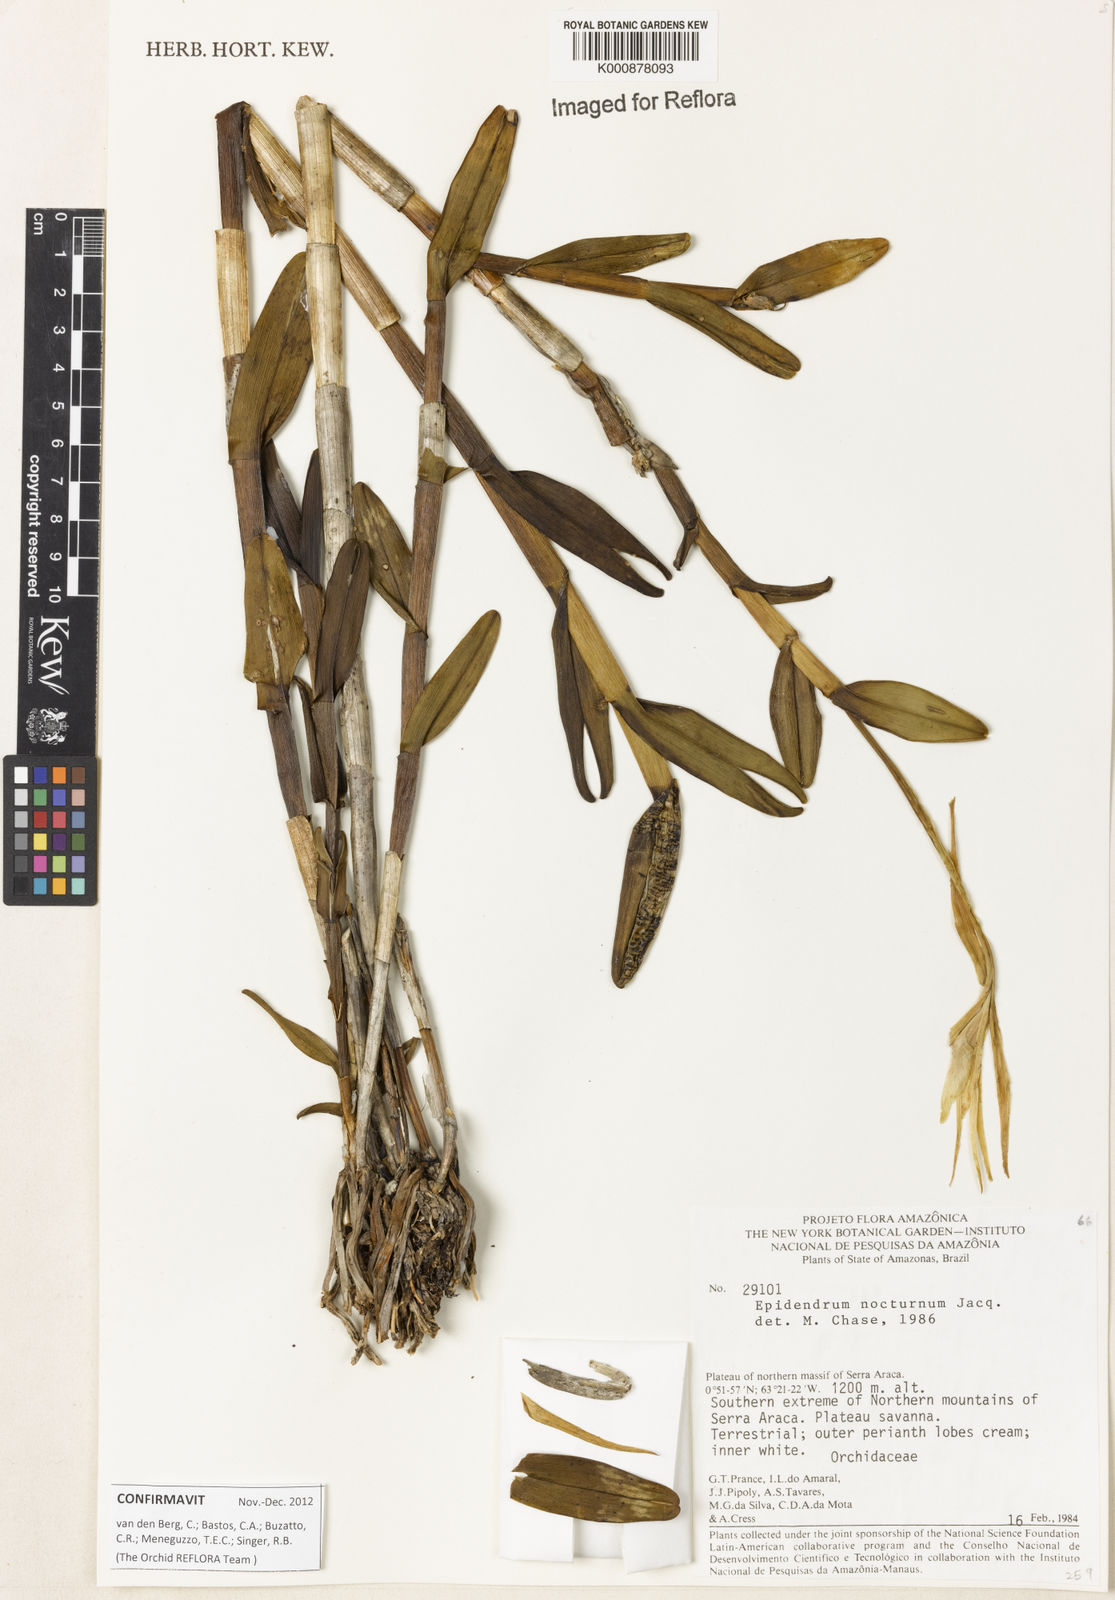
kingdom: Plantae
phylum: Tracheophyta
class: Liliopsida
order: Asparagales
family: Orchidaceae
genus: Epidendrum
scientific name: Epidendrum nocturnum
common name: Night scented orchid
